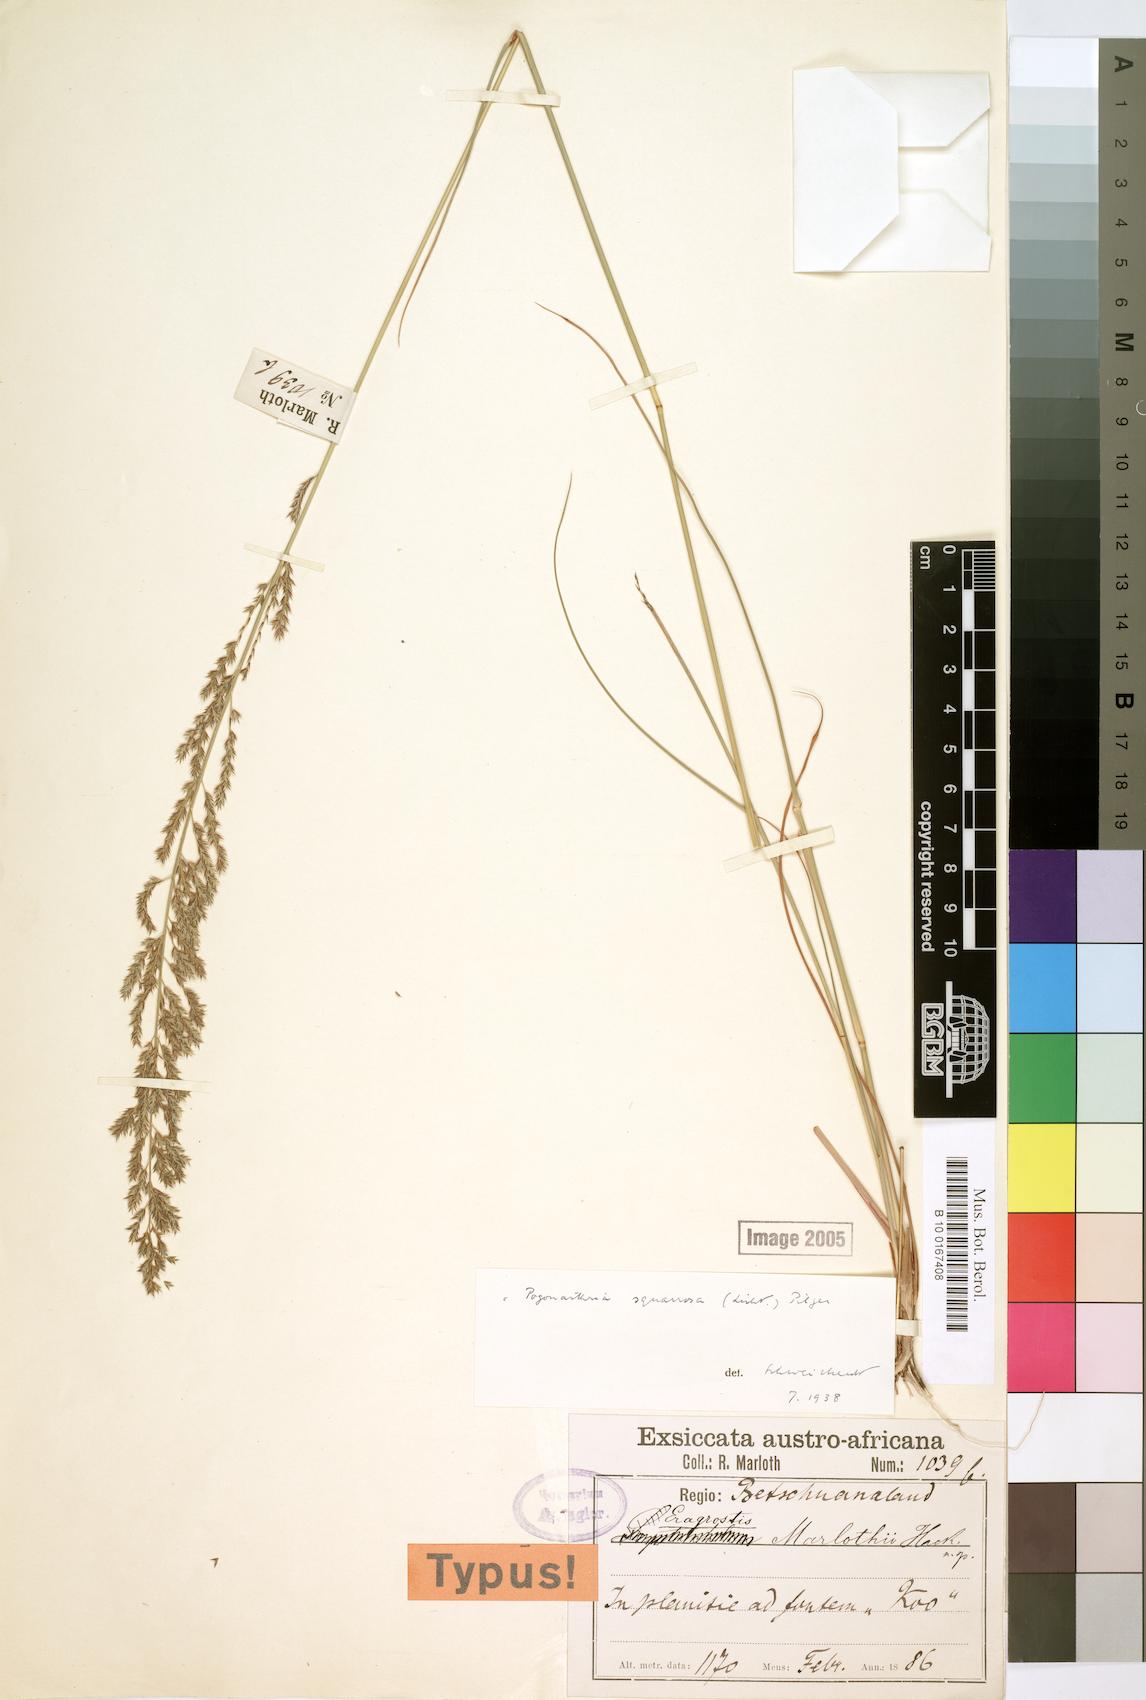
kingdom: Plantae
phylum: Tracheophyta
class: Liliopsida
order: Poales
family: Poaceae
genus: Pogonarthria
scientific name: Pogonarthria squarrosa
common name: Grass
